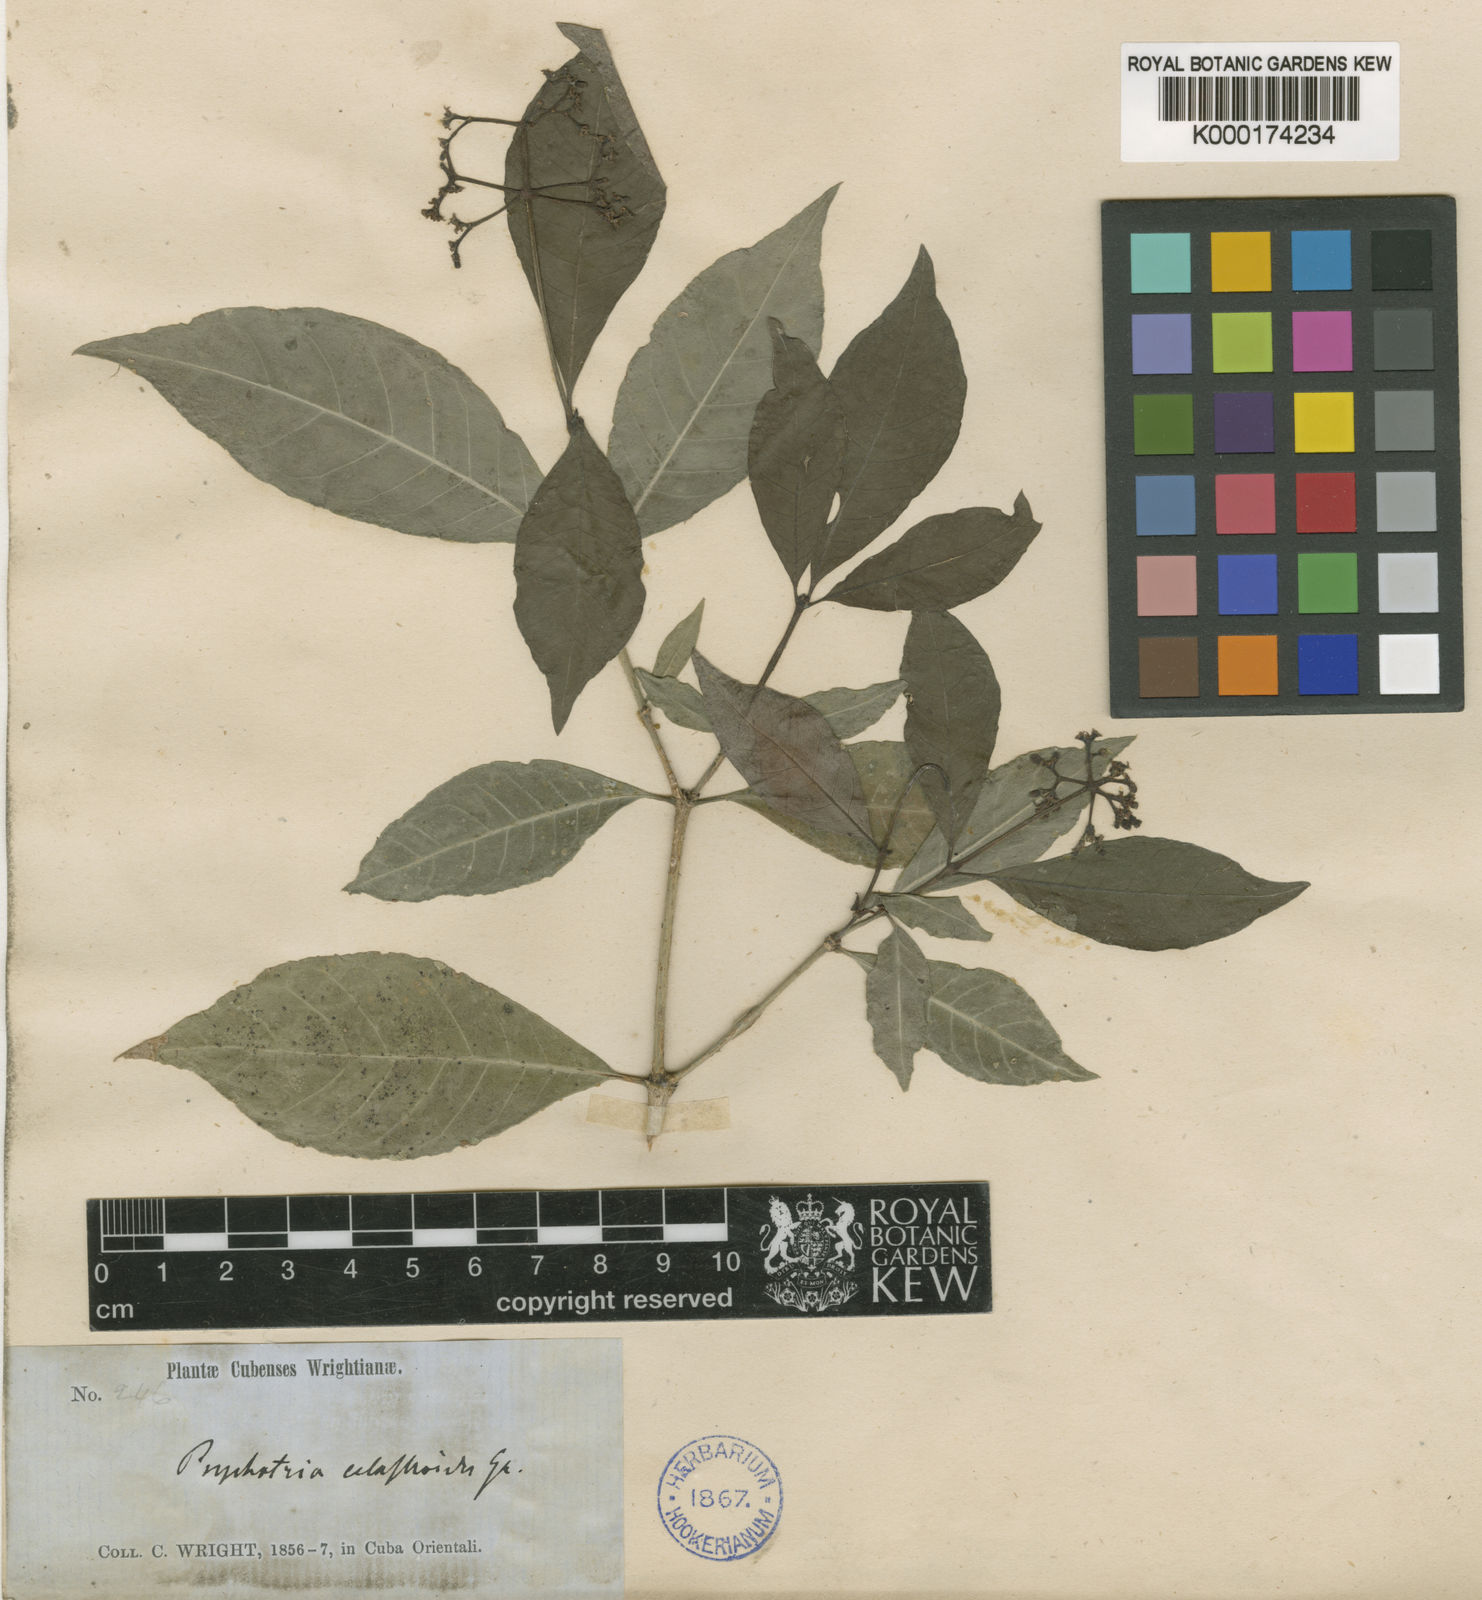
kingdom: Plantae
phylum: Tracheophyta
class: Magnoliopsida
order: Gentianales
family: Rubiaceae
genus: Psychotria
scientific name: Psychotria congesta
